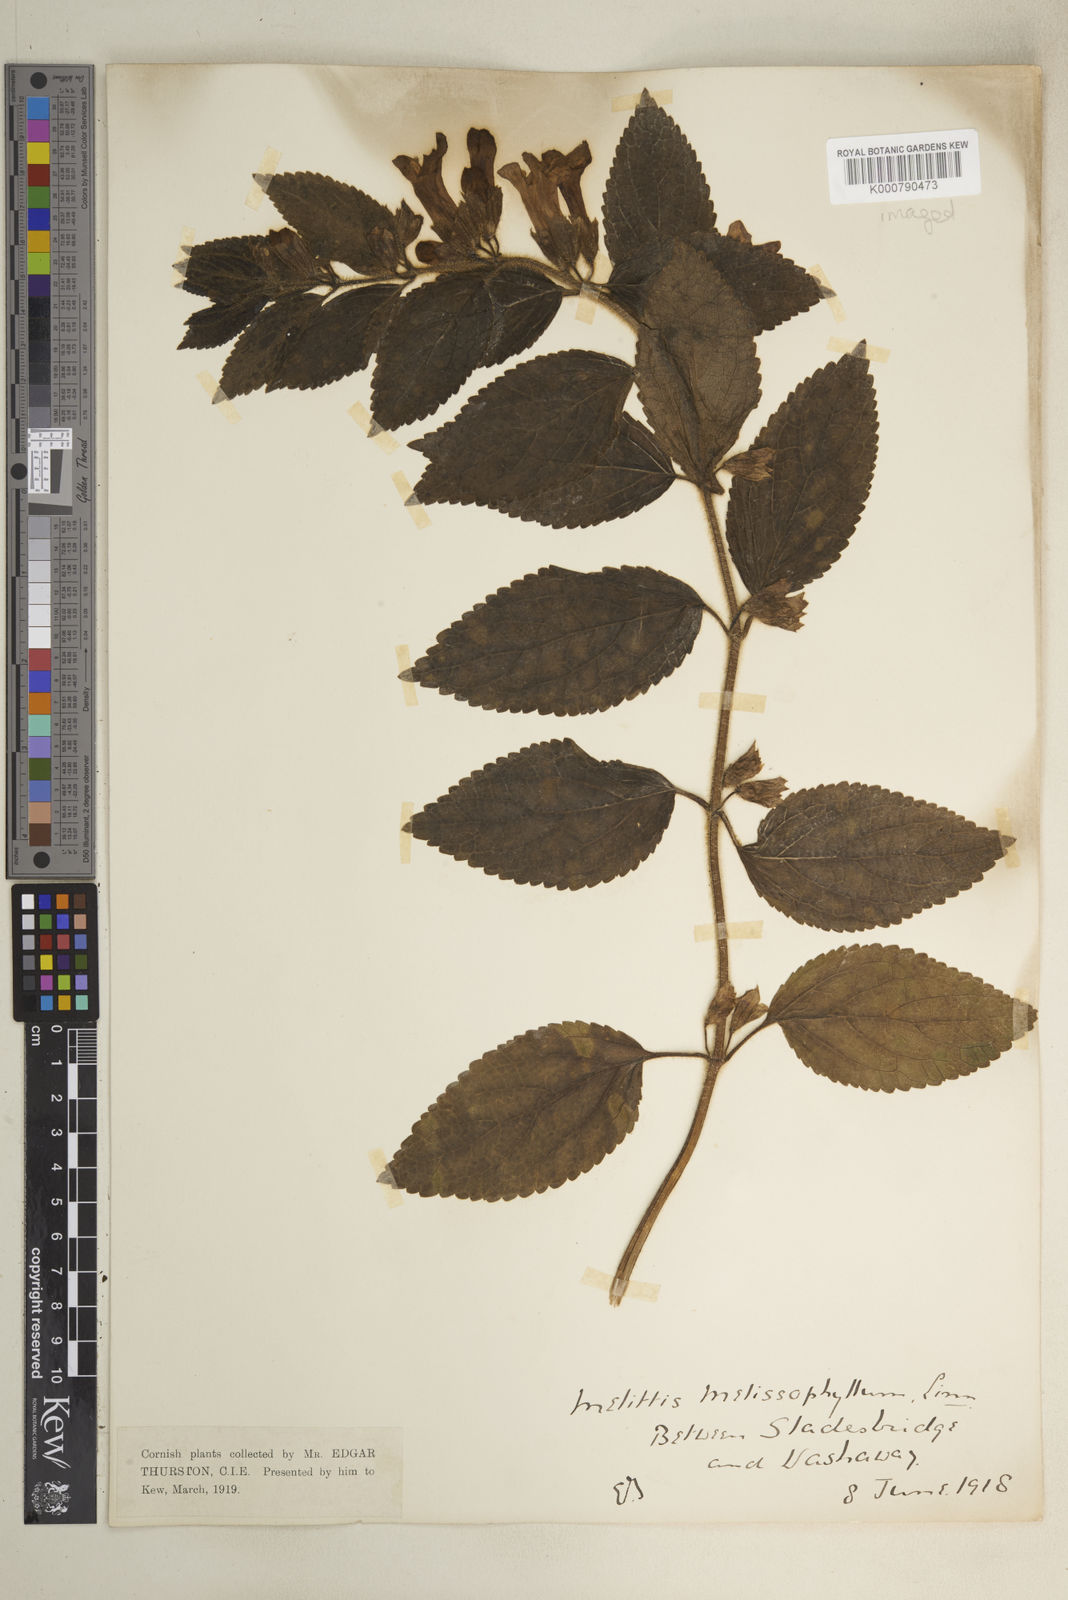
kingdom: Plantae
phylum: Tracheophyta
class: Magnoliopsida
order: Lamiales
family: Lamiaceae
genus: Melittis
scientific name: Melittis melissophyllum
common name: Bastard balm
